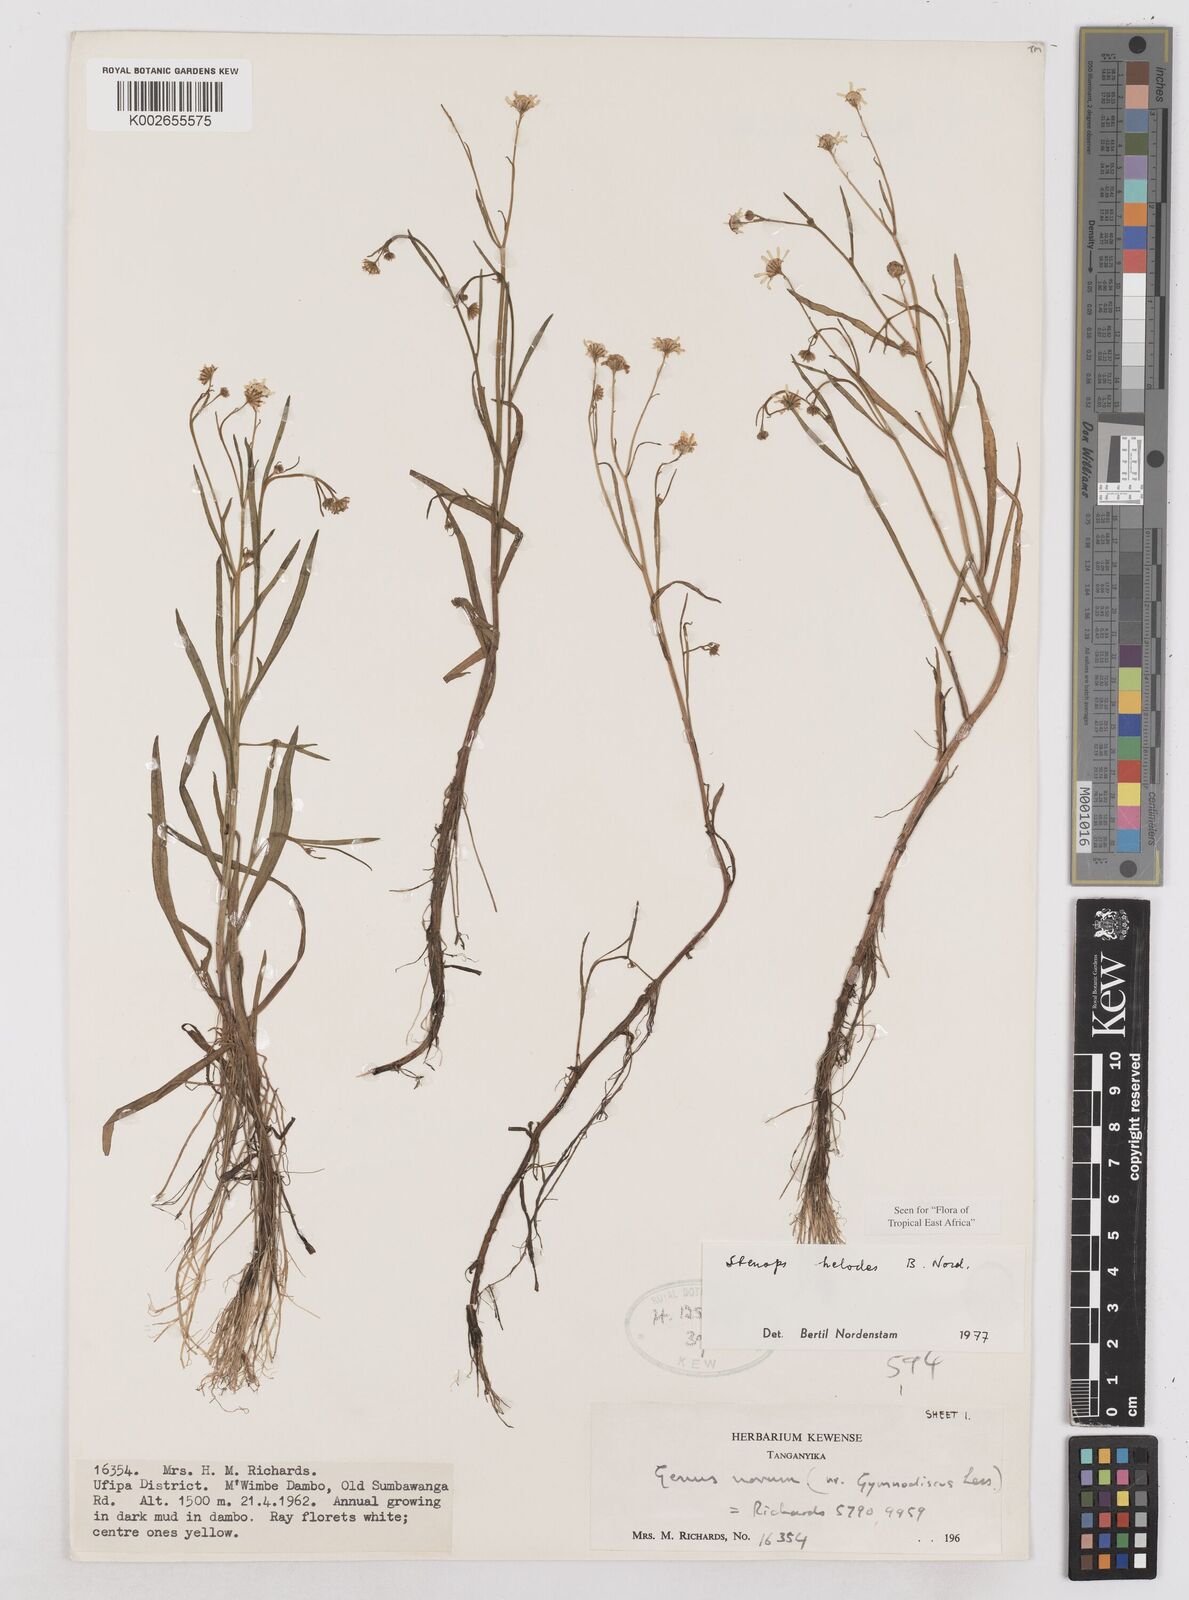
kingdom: Plantae
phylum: Tracheophyta
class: Magnoliopsida
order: Asterales
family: Asteraceae
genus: Stenops
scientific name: Stenops helodes
